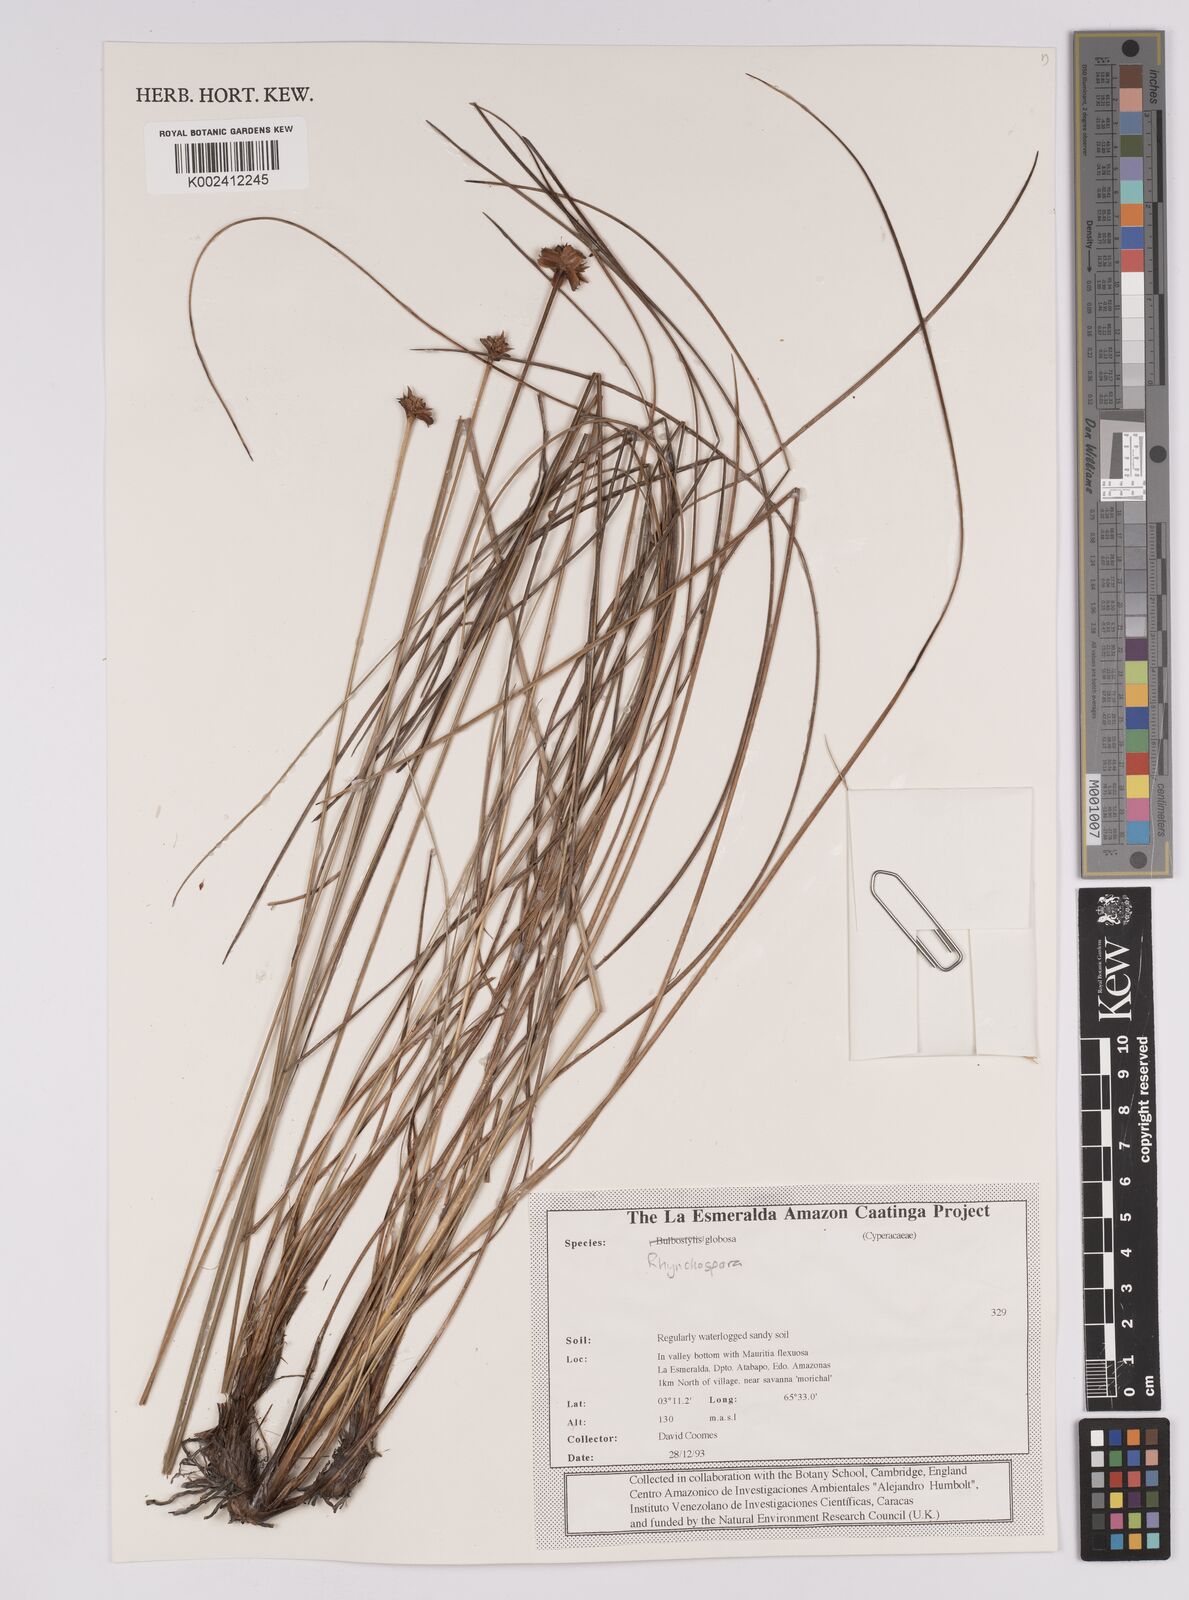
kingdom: Plantae
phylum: Tracheophyta
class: Liliopsida
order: Poales
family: Cyperaceae
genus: Rhynchospora
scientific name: Rhynchospora exaltata
